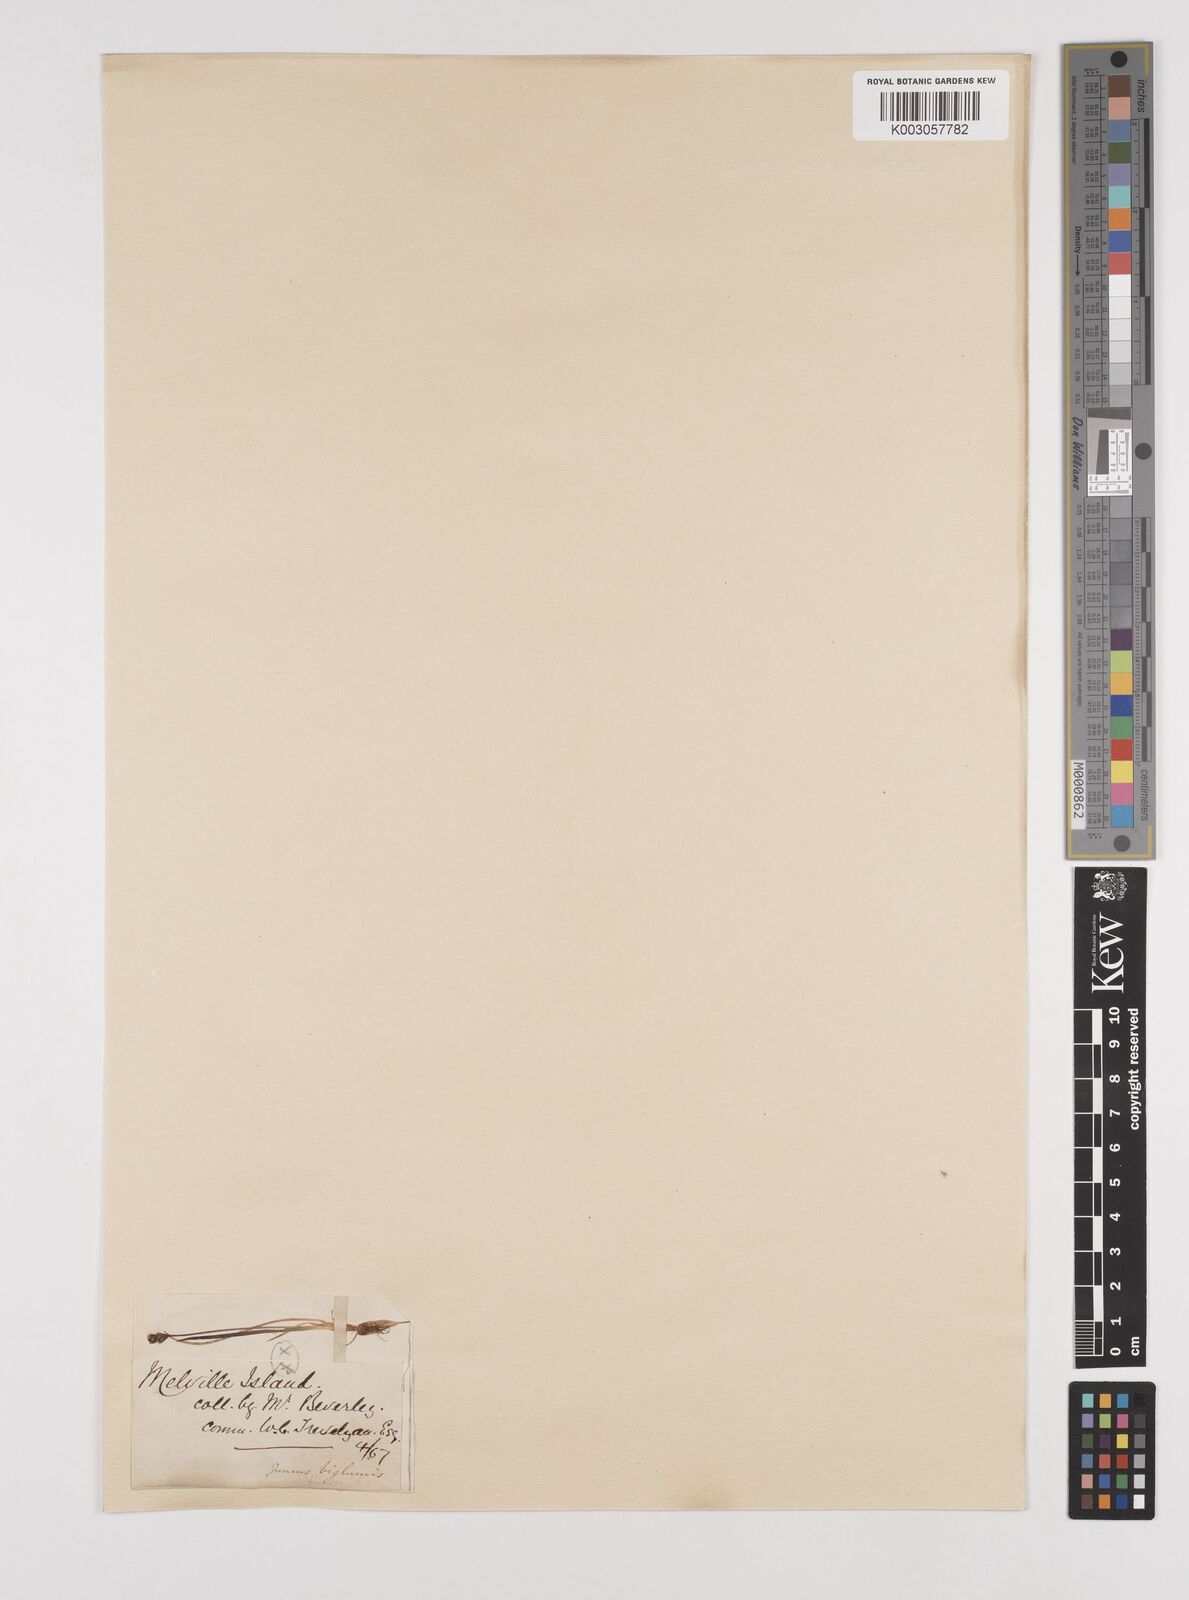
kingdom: Plantae
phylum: Tracheophyta
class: Liliopsida
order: Poales
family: Juncaceae
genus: Juncus
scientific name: Juncus biglumis
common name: Two-flowered rush
